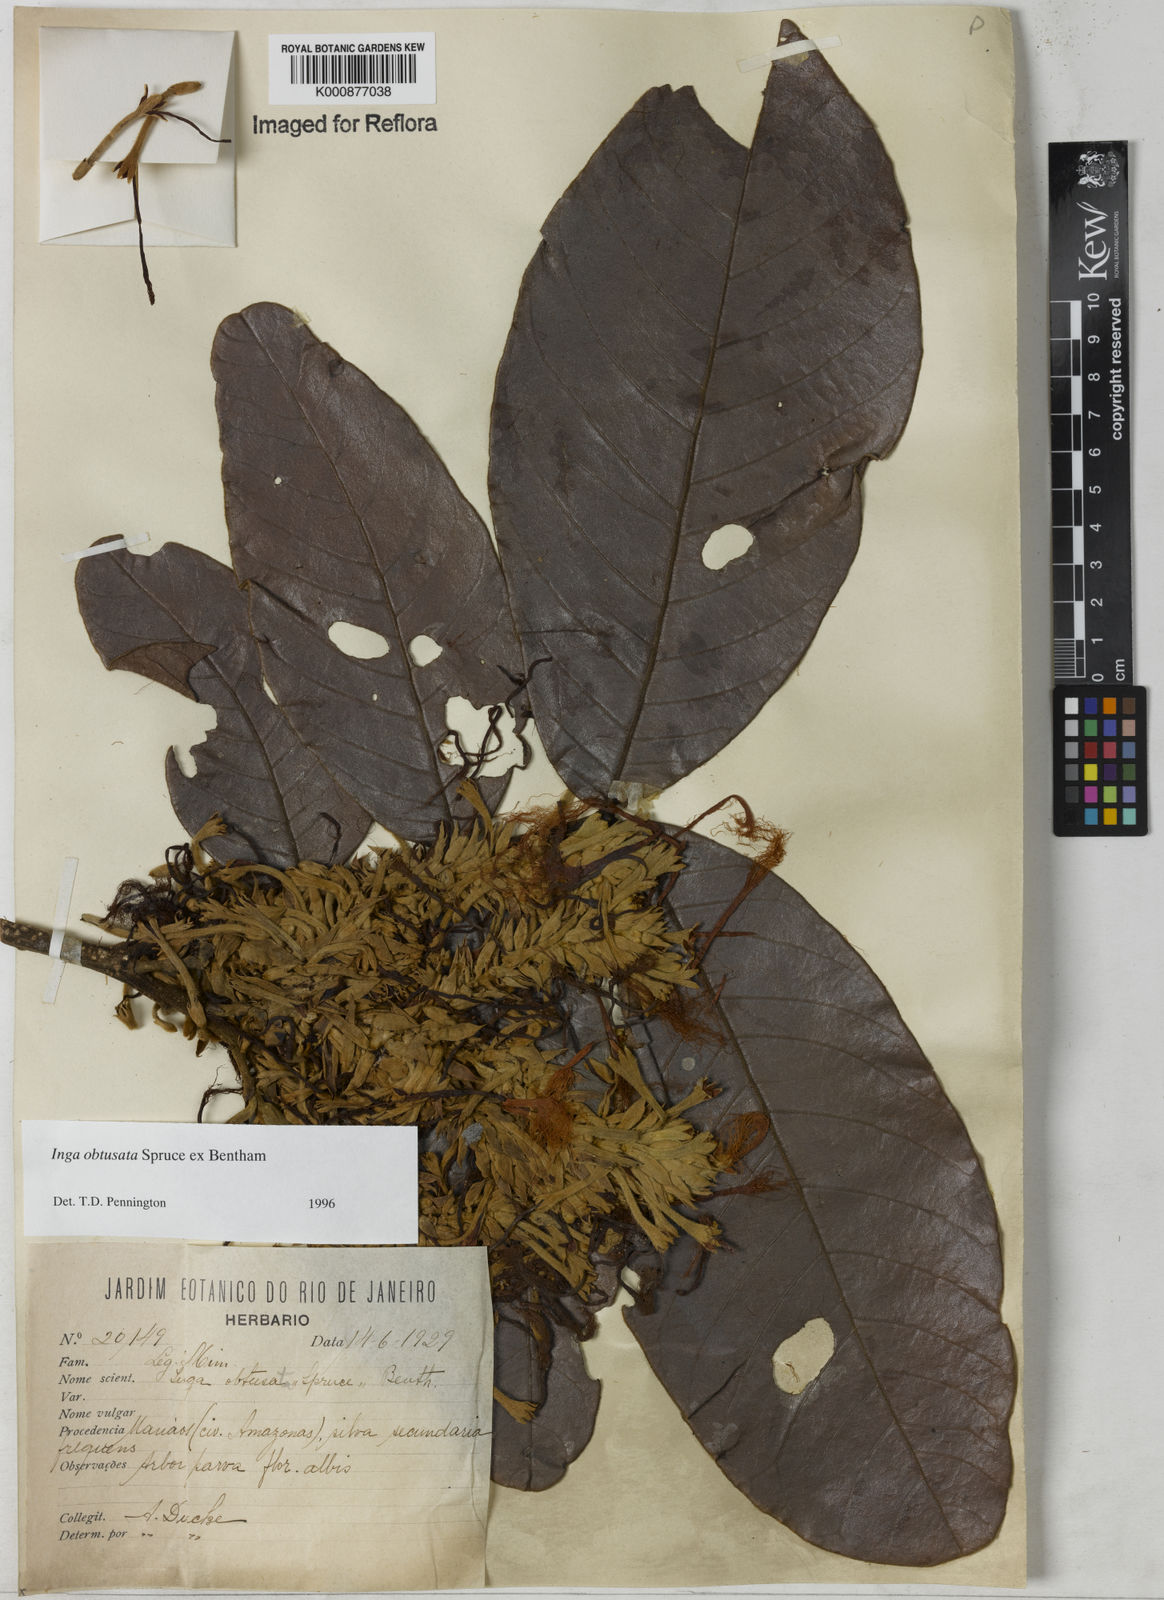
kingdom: Plantae
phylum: Tracheophyta
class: Magnoliopsida
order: Fabales
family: Fabaceae
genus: Inga
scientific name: Inga obtusata
